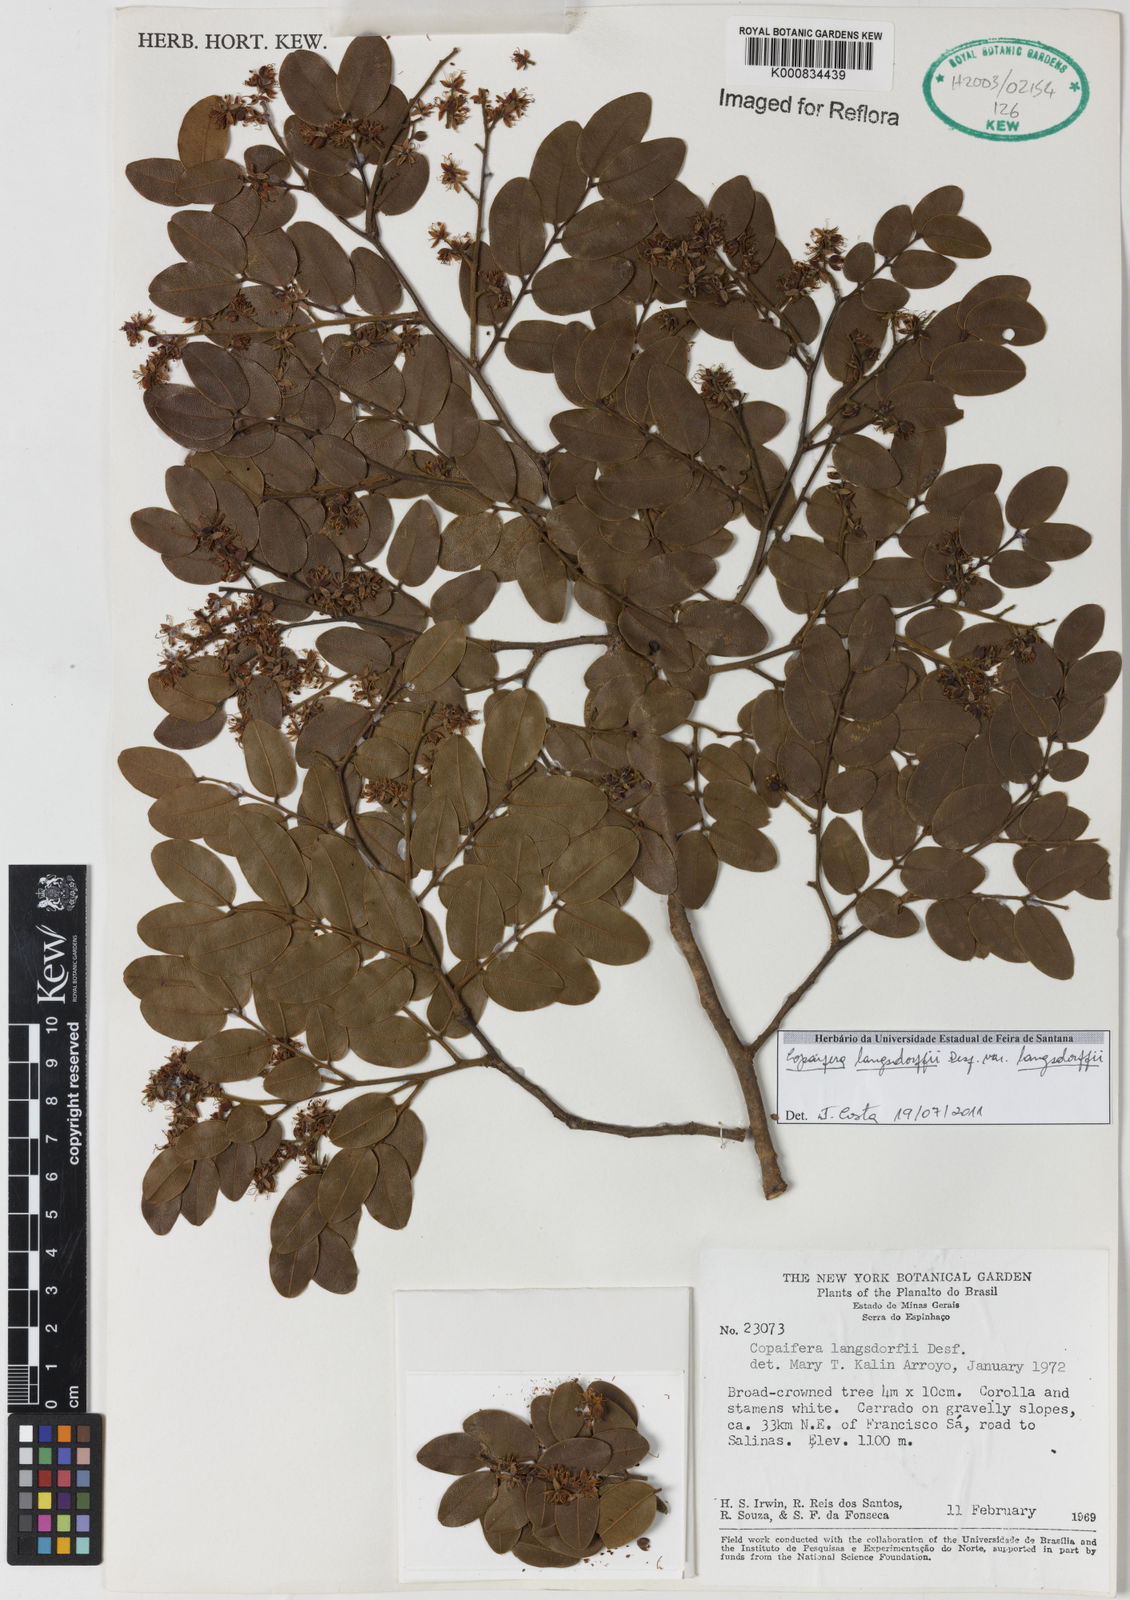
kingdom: Plantae
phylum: Tracheophyta
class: Magnoliopsida
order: Fabales
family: Fabaceae
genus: Copaifera
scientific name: Copaifera langsdorffii
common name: Brazilian diesel tree
